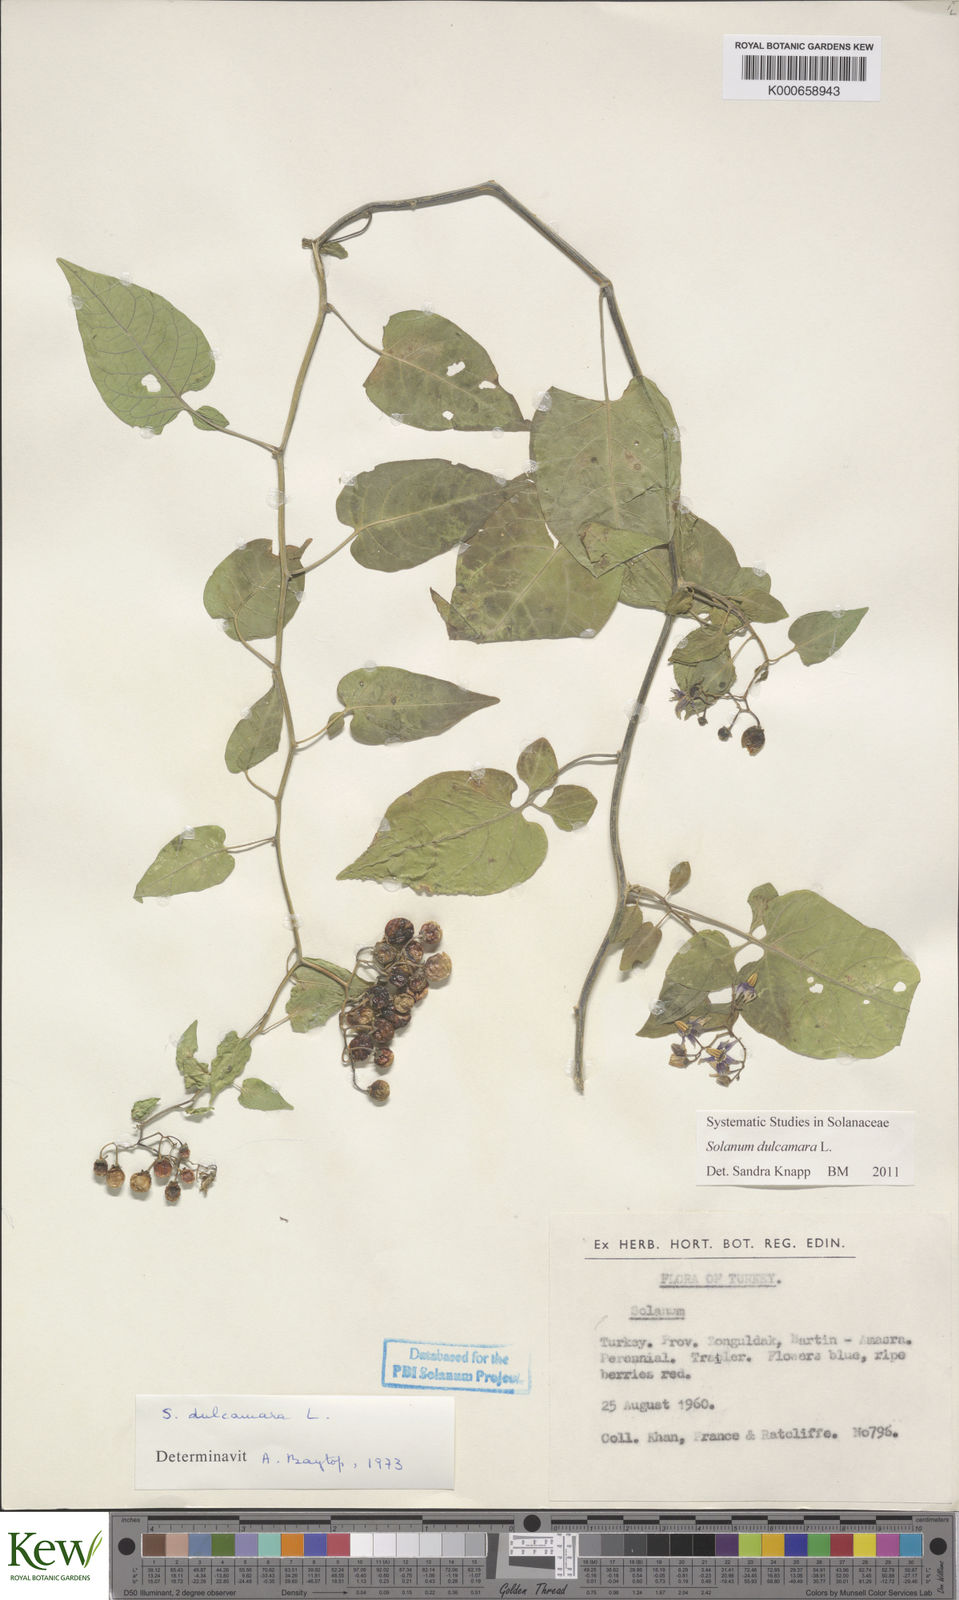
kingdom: Plantae
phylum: Tracheophyta
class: Magnoliopsida
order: Solanales
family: Solanaceae
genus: Solanum
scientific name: Solanum dulcamara
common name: Climbing nightshade
